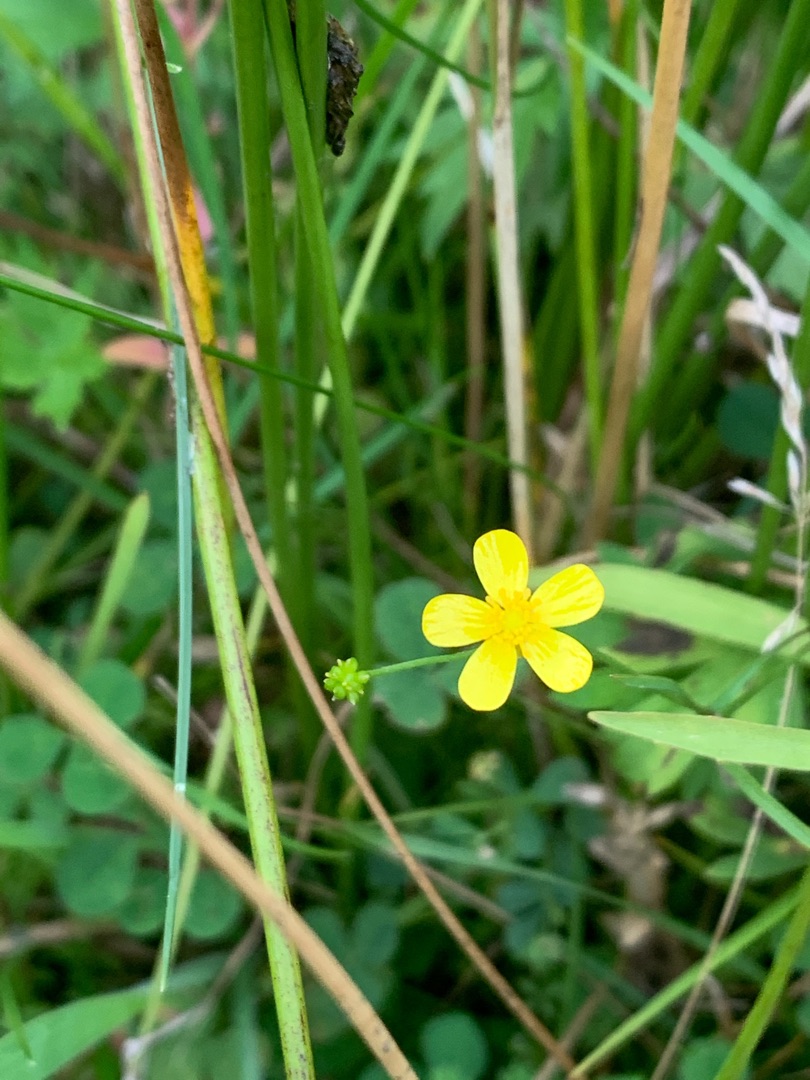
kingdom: Plantae
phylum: Tracheophyta
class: Magnoliopsida
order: Ranunculales
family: Ranunculaceae
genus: Ranunculus
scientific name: Ranunculus
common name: Ranunkelslægten
